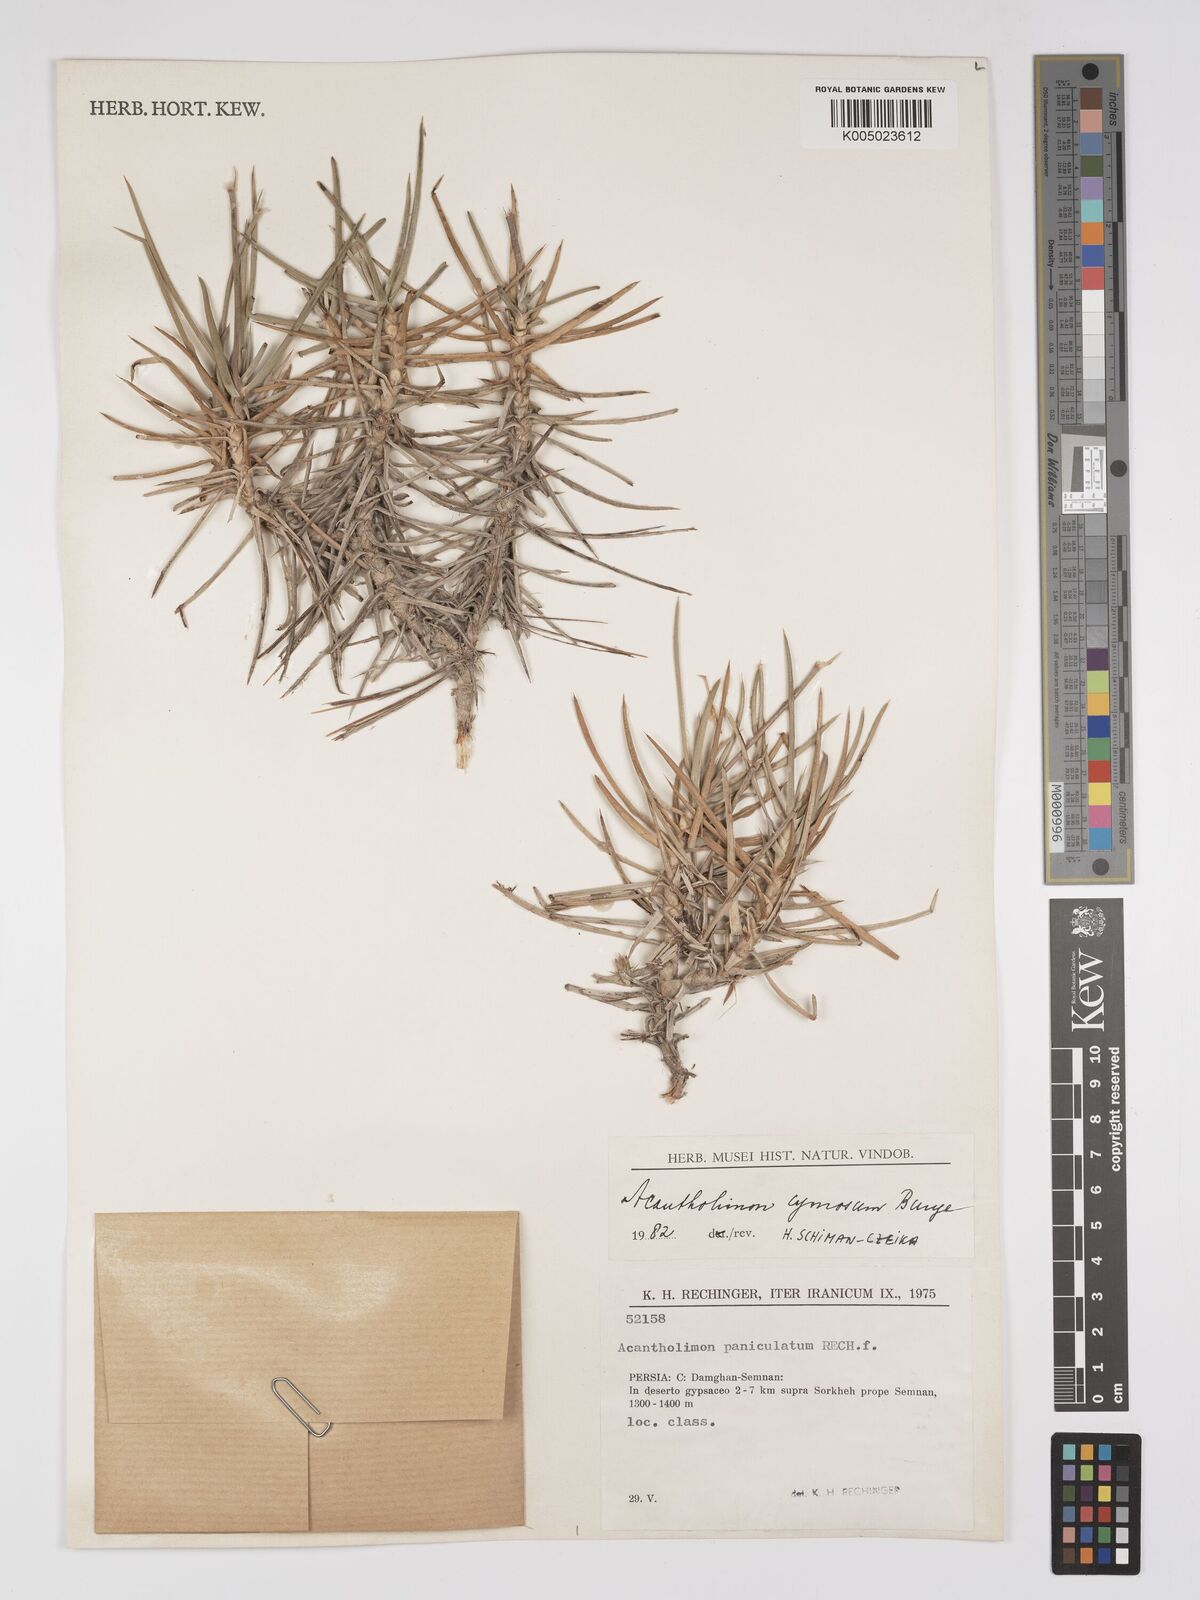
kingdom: Plantae
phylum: Tracheophyta
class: Magnoliopsida
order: Caryophyllales
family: Plumbaginaceae
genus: Acantholimon
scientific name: Acantholimon cymosum
